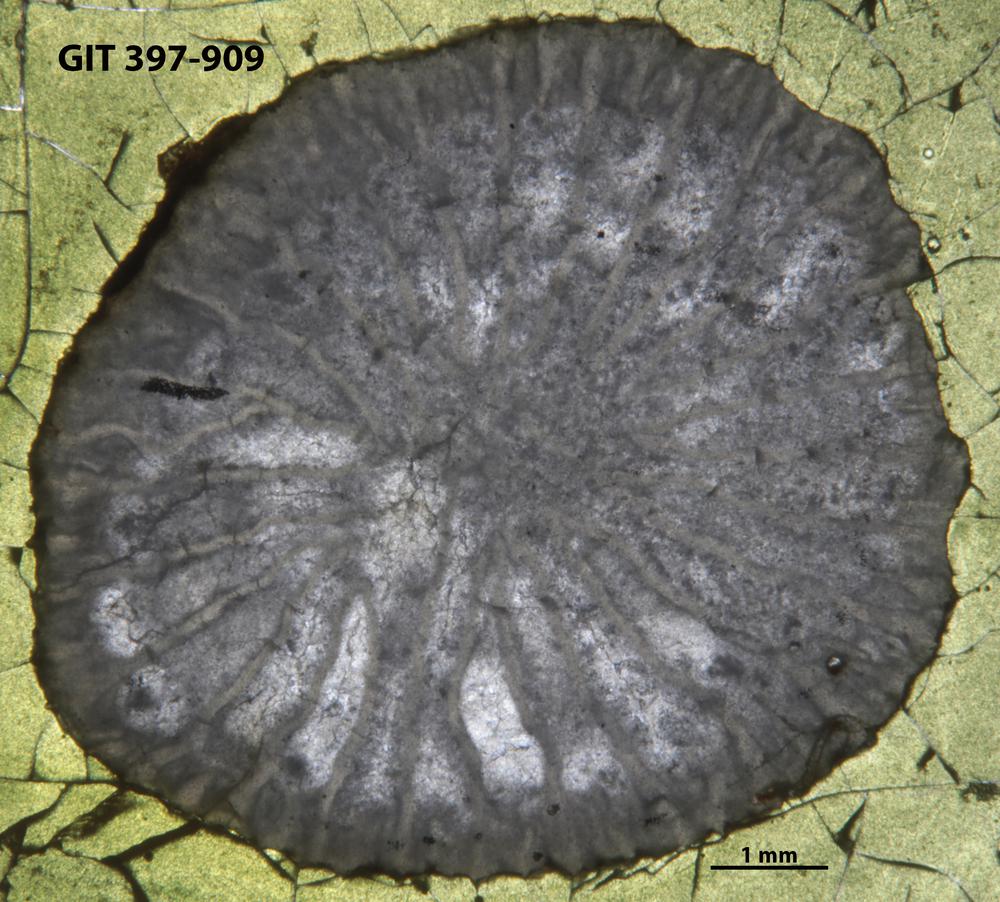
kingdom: Animalia
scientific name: Animalia
